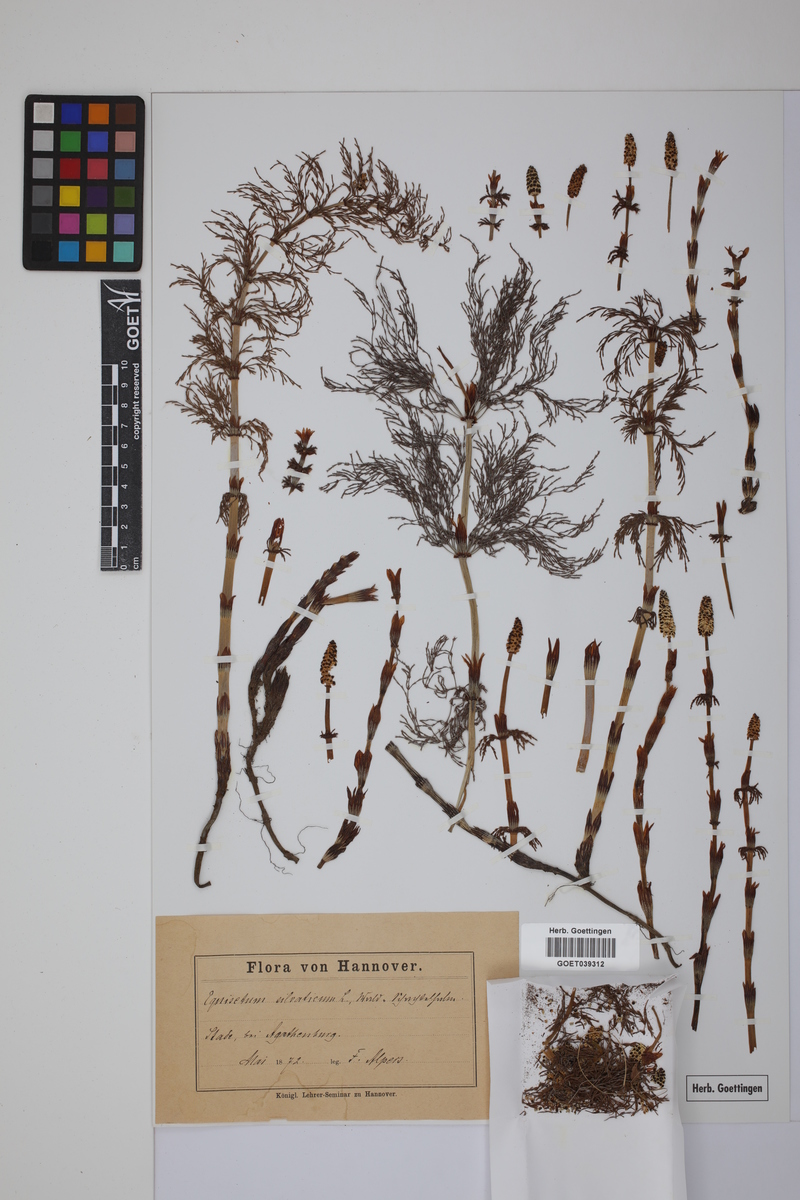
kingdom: Plantae
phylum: Tracheophyta
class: Polypodiopsida
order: Equisetales
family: Equisetaceae
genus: Equisetum
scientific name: Equisetum sylvaticum
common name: Wood horsetail
